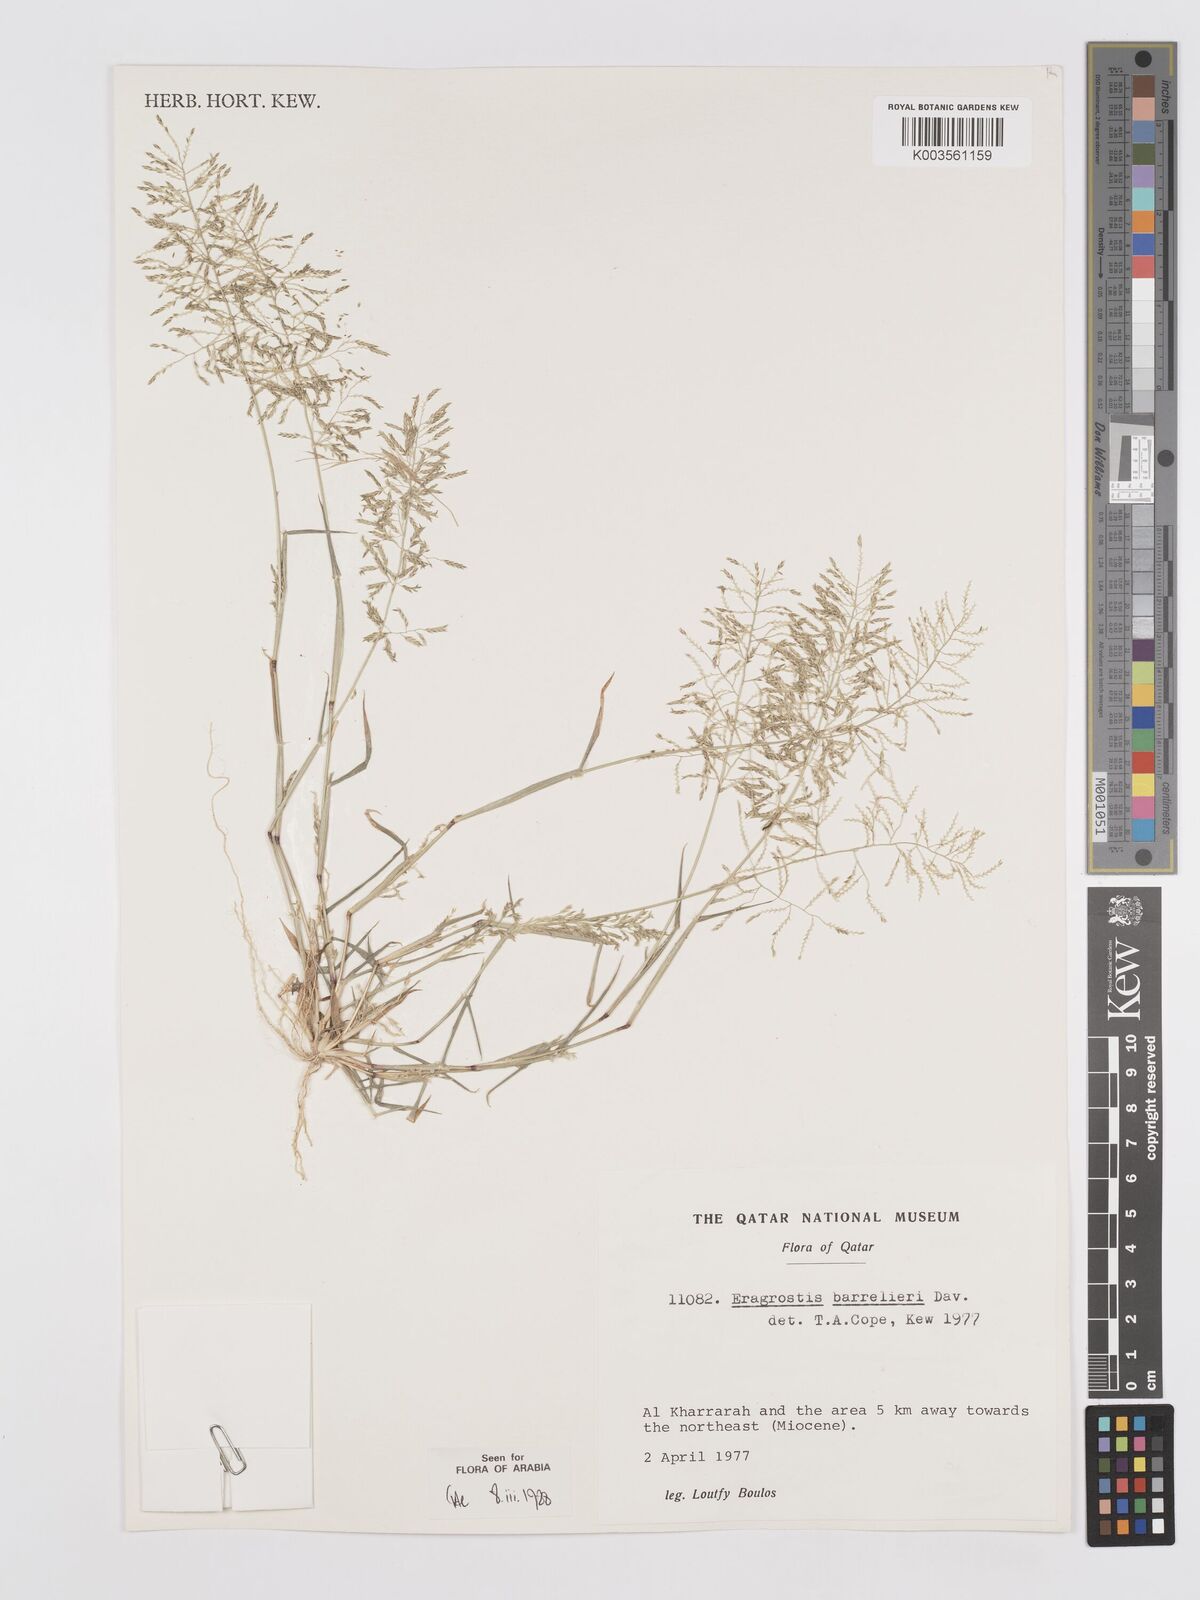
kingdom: Plantae
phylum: Tracheophyta
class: Liliopsida
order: Poales
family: Poaceae
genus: Eragrostis
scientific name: Eragrostis barrelieri
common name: Mediterranean lovegrass
